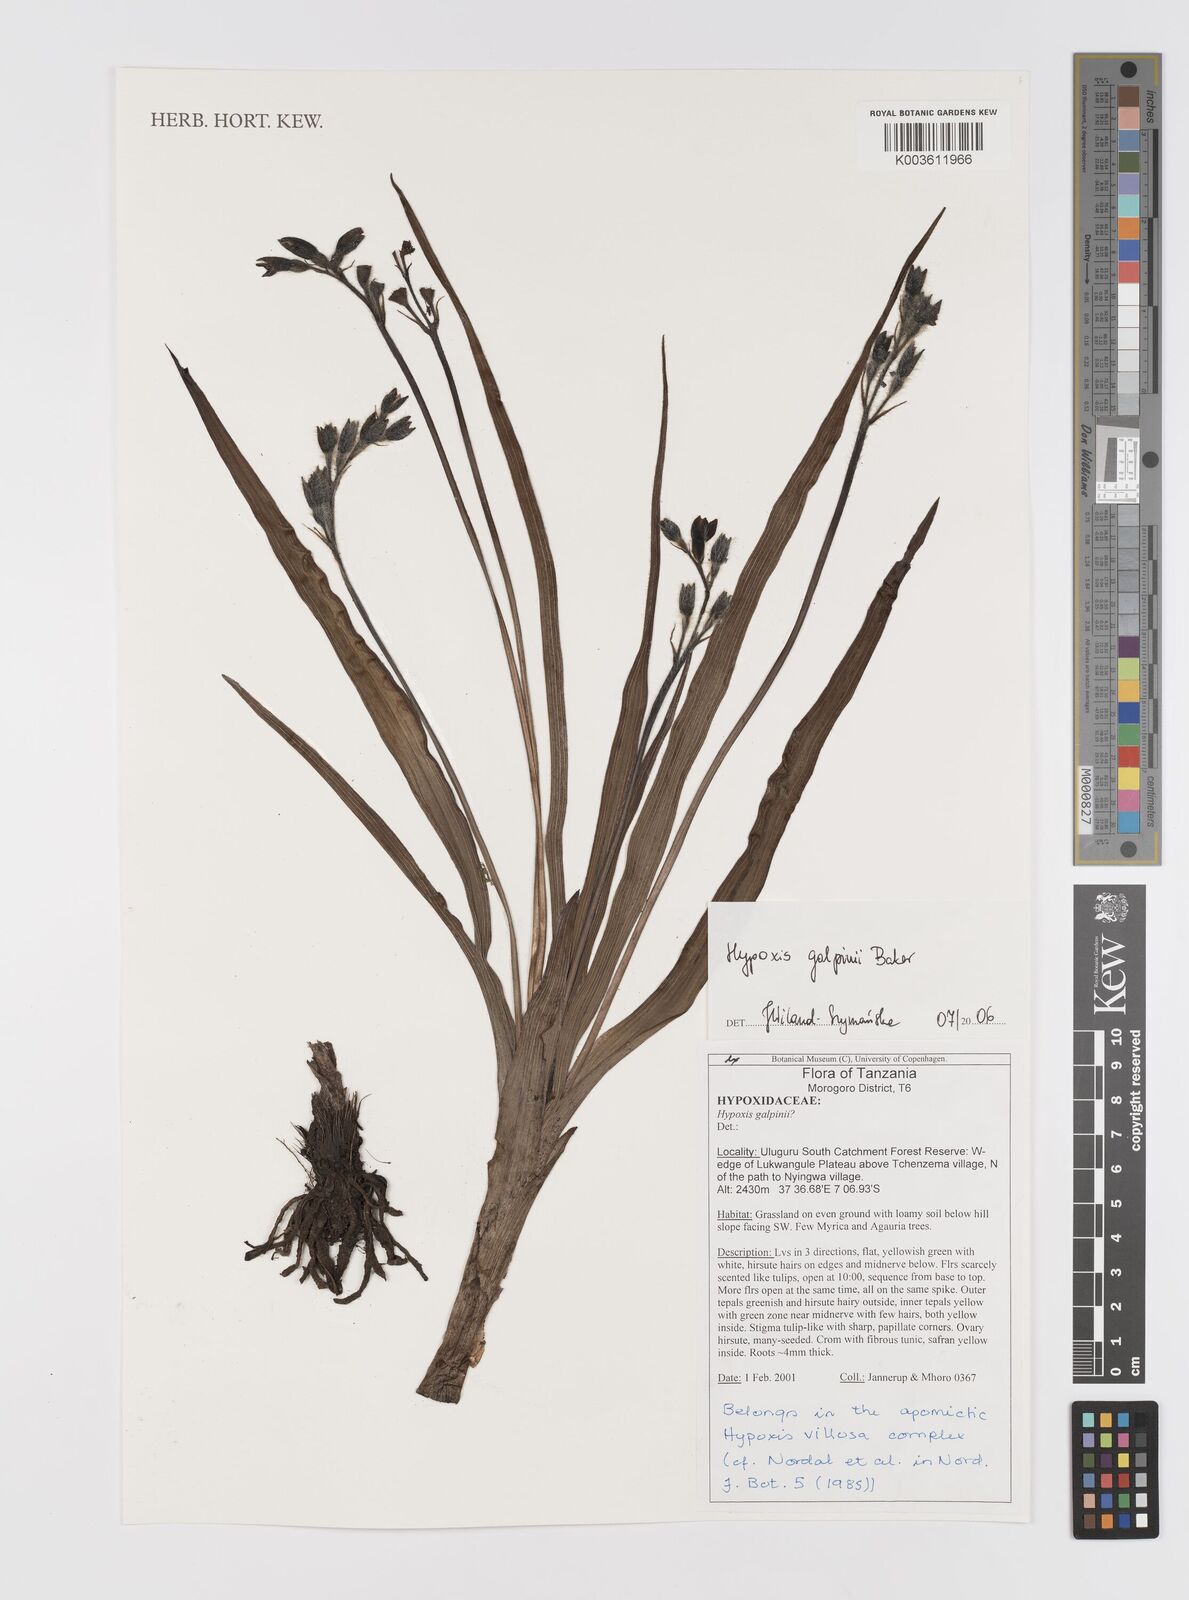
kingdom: Plantae
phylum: Tracheophyta
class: Liliopsida
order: Asparagales
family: Hypoxidaceae
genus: Hypoxis
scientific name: Hypoxis galpinii
